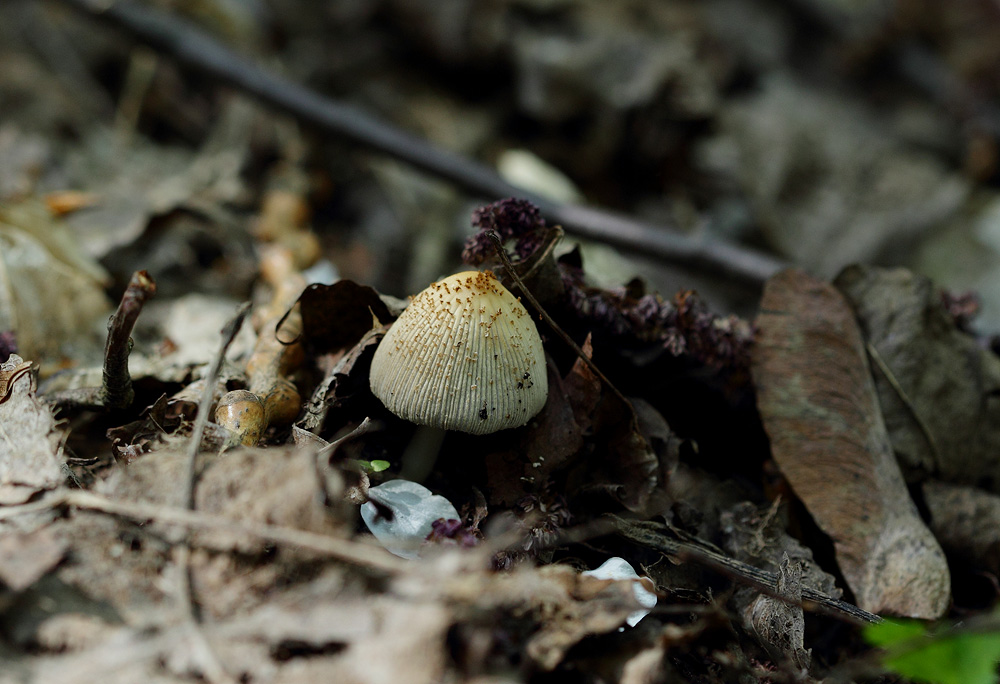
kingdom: Fungi
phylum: Basidiomycota
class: Agaricomycetes
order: Agaricales
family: Psathyrellaceae
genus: Coprinellus
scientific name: Coprinellus xanthothrix
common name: gultrådet blækhat
